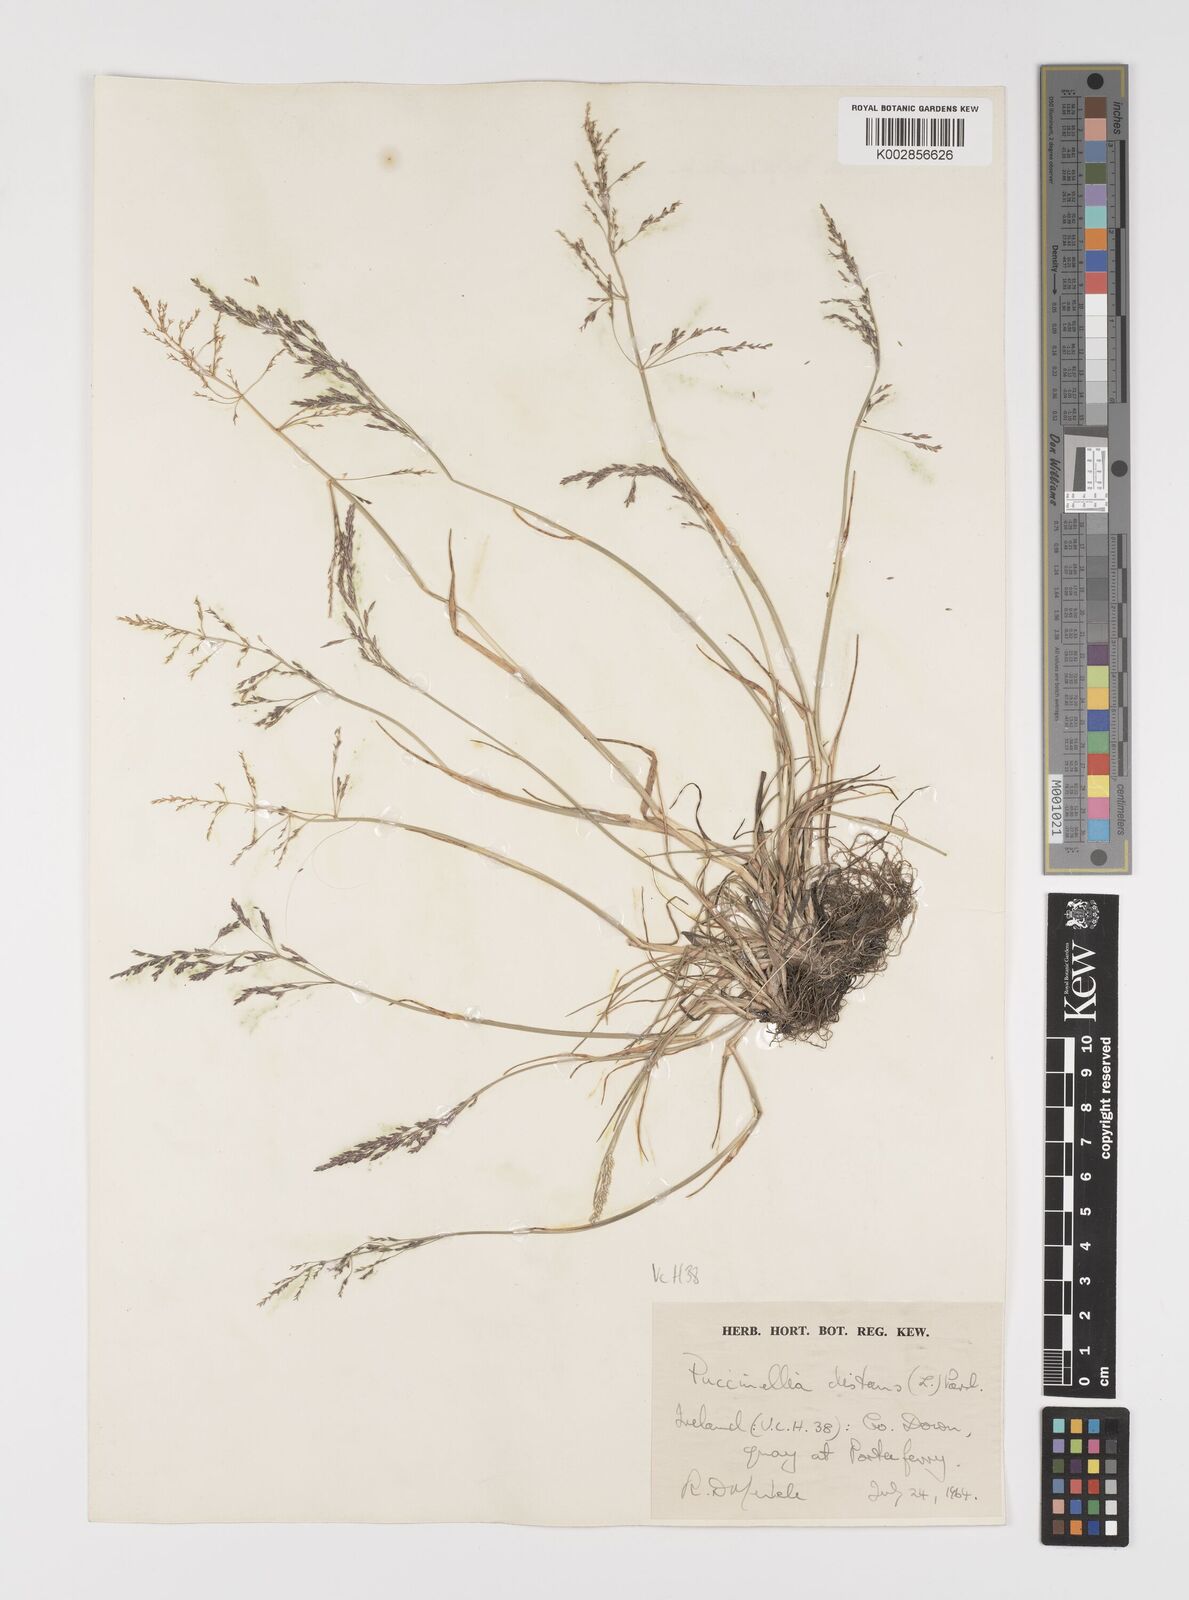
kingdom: Plantae
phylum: Tracheophyta
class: Liliopsida
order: Poales
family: Poaceae
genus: Puccinellia
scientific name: Puccinellia distans
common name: Weeping alkaligrass
